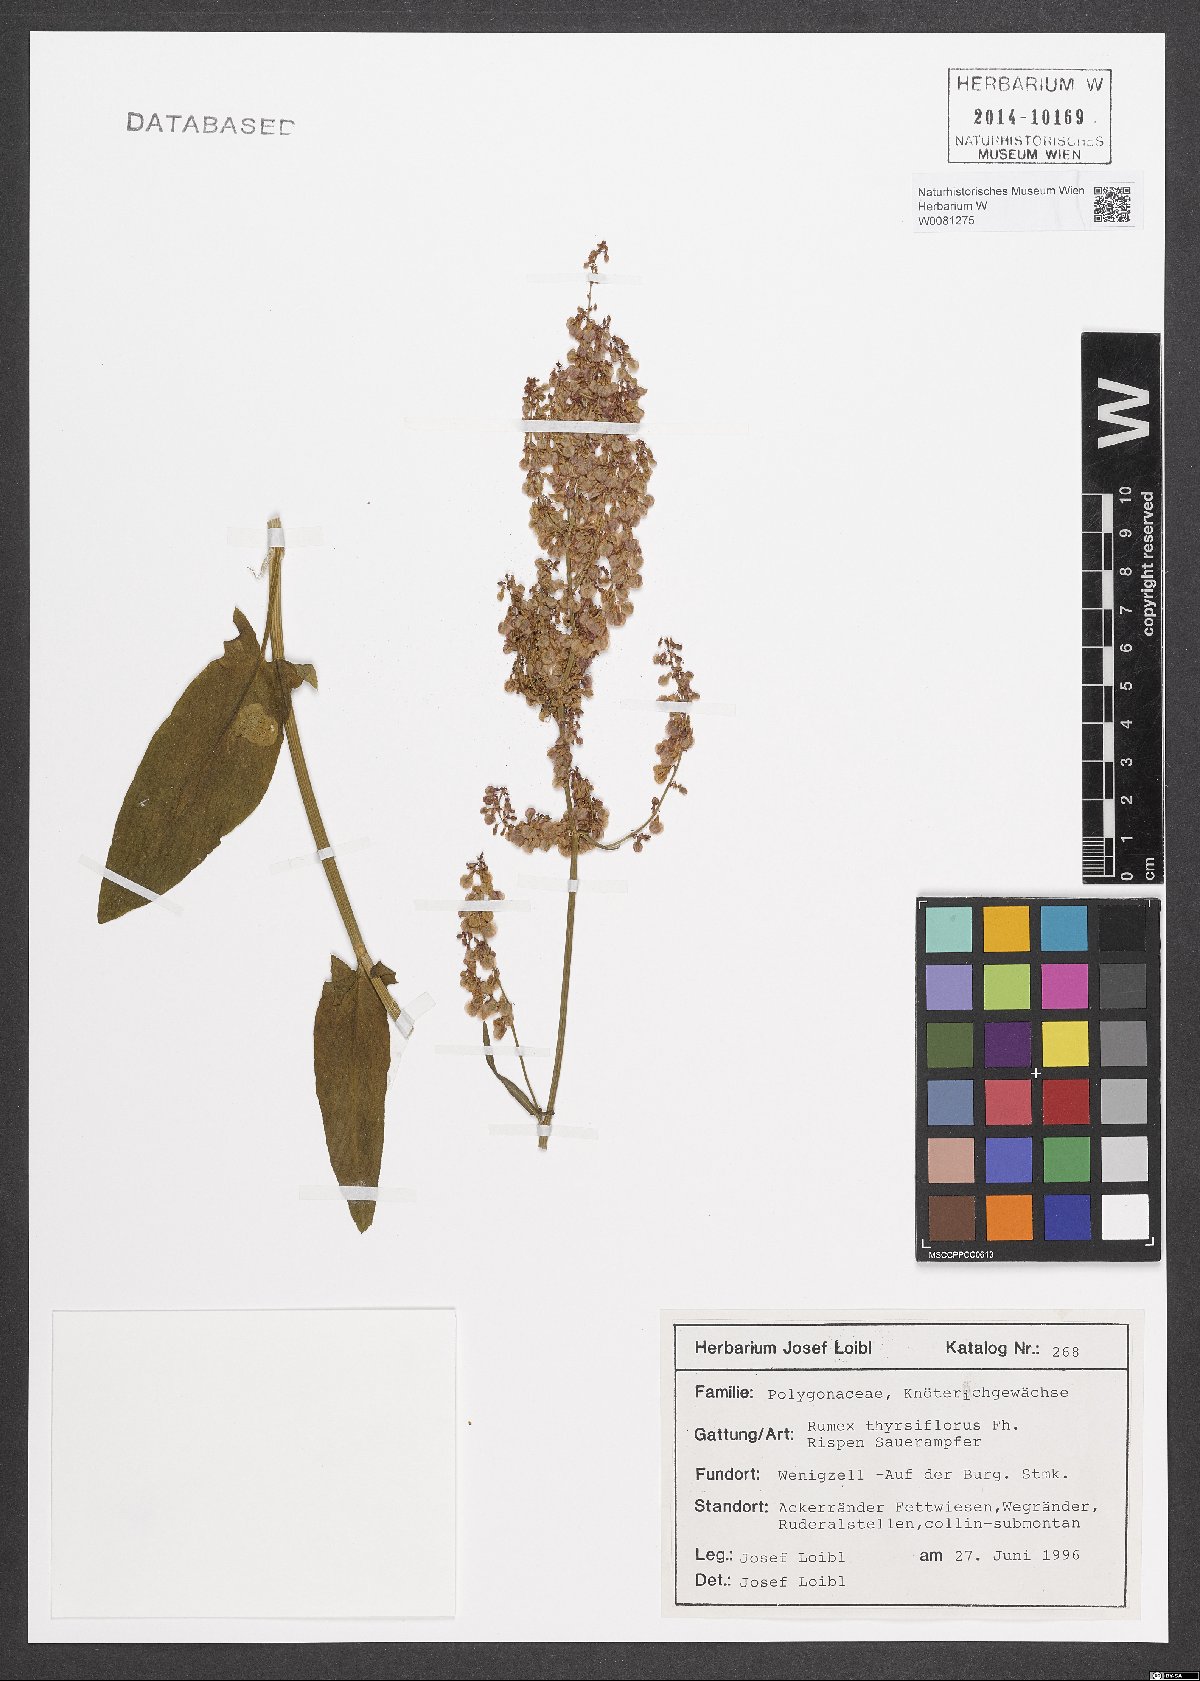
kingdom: Plantae
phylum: Tracheophyta
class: Magnoliopsida
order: Caryophyllales
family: Polygonaceae
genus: Rumex
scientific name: Rumex thyrsiflorus
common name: Garden sorrel
